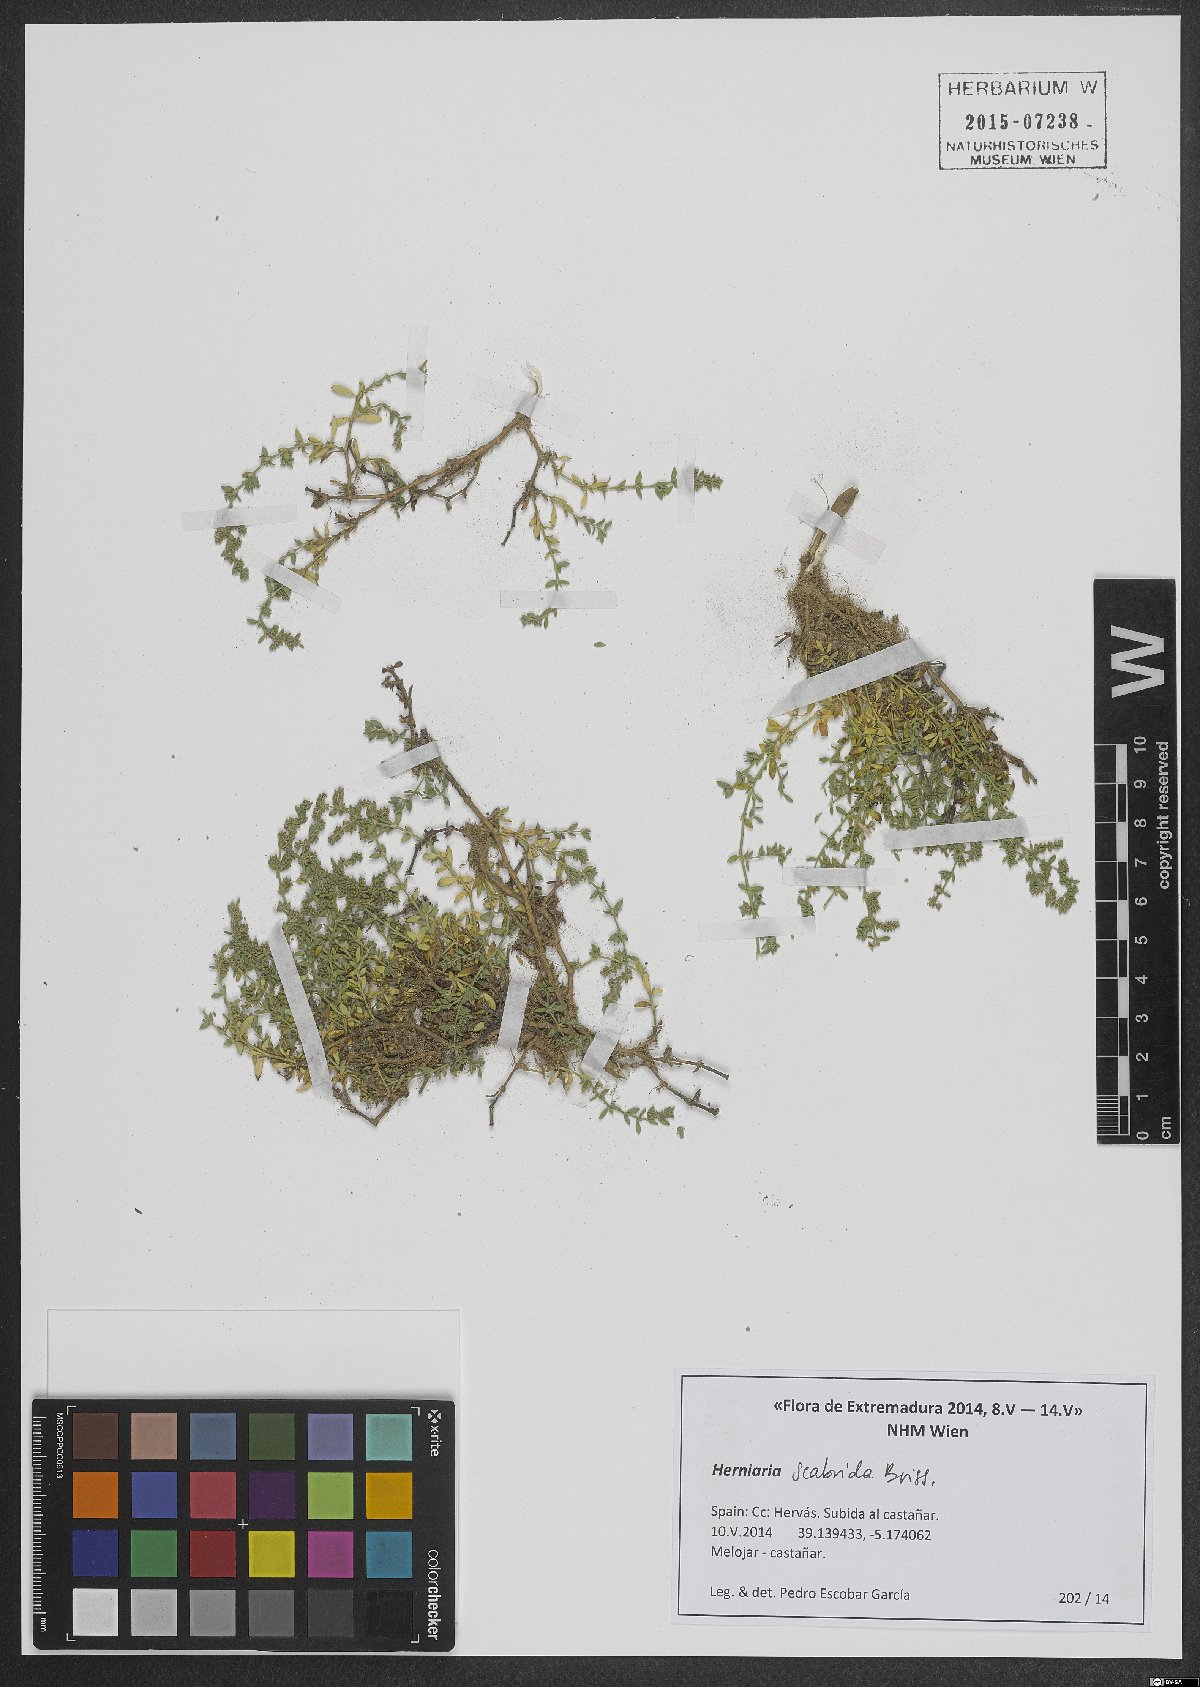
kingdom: Plantae
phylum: Tracheophyta
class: Magnoliopsida
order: Caryophyllales
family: Caryophyllaceae
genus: Herniaria
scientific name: Herniaria scabrida
